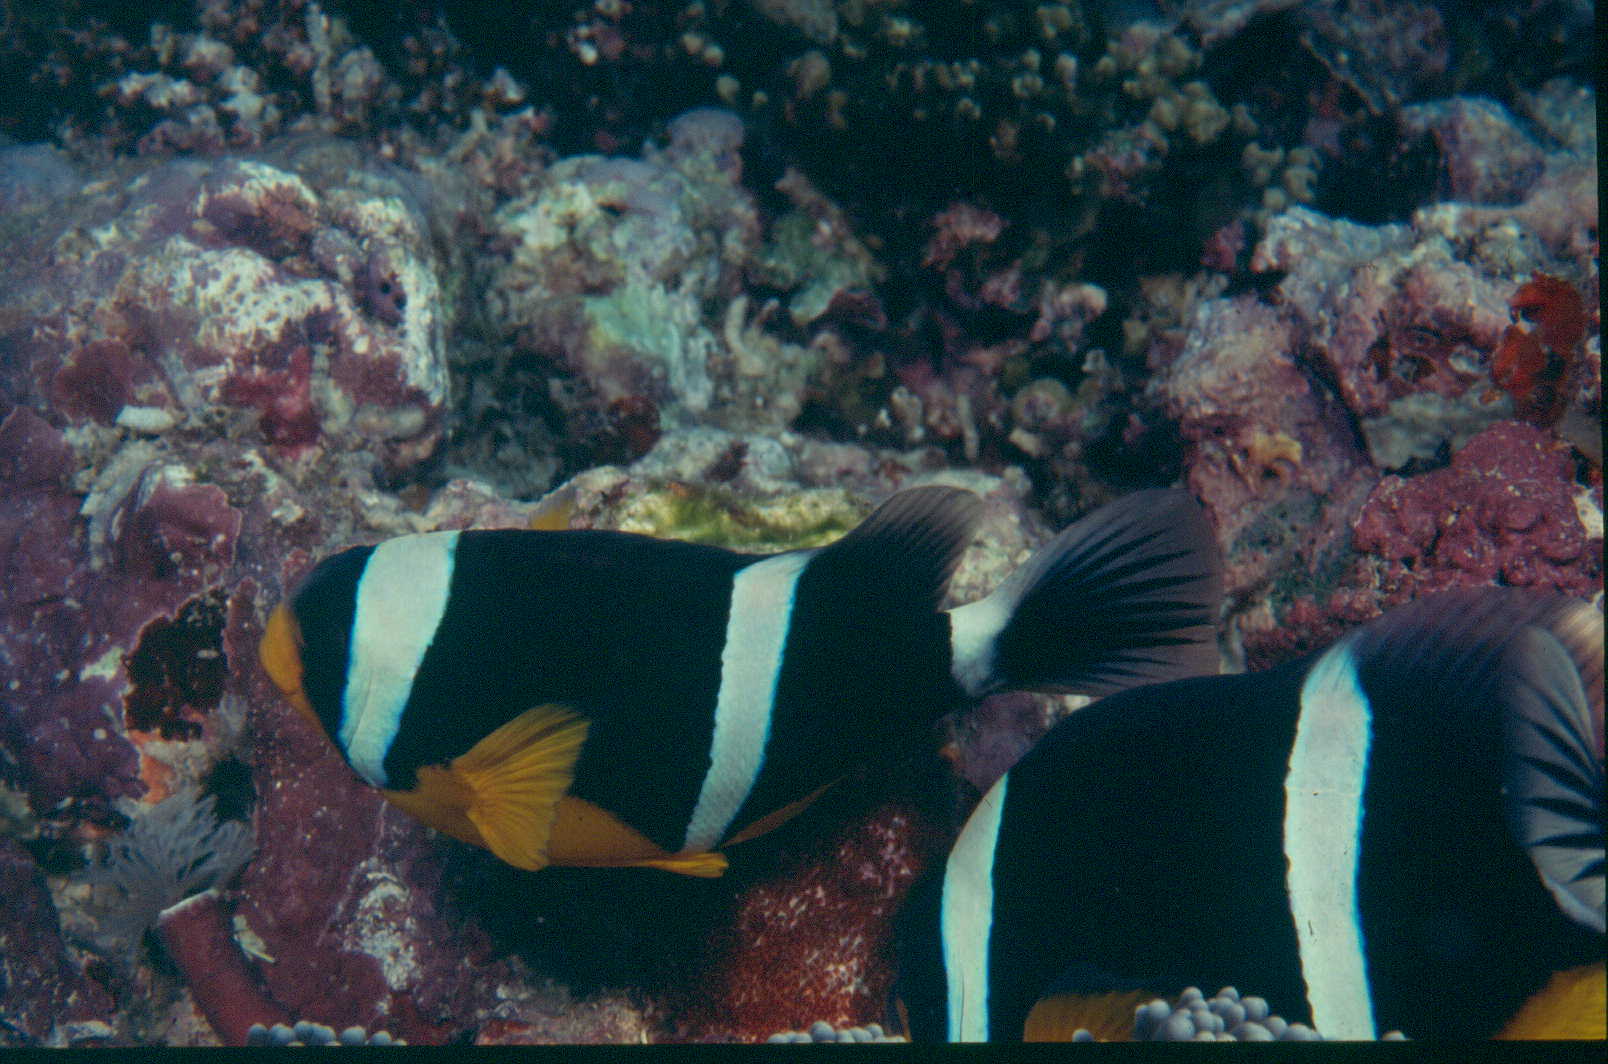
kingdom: Animalia
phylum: Chordata
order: Perciformes
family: Pomacentridae
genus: Amphiprion
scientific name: Amphiprion fuscocaudatus
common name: Seychelles anemonefish
